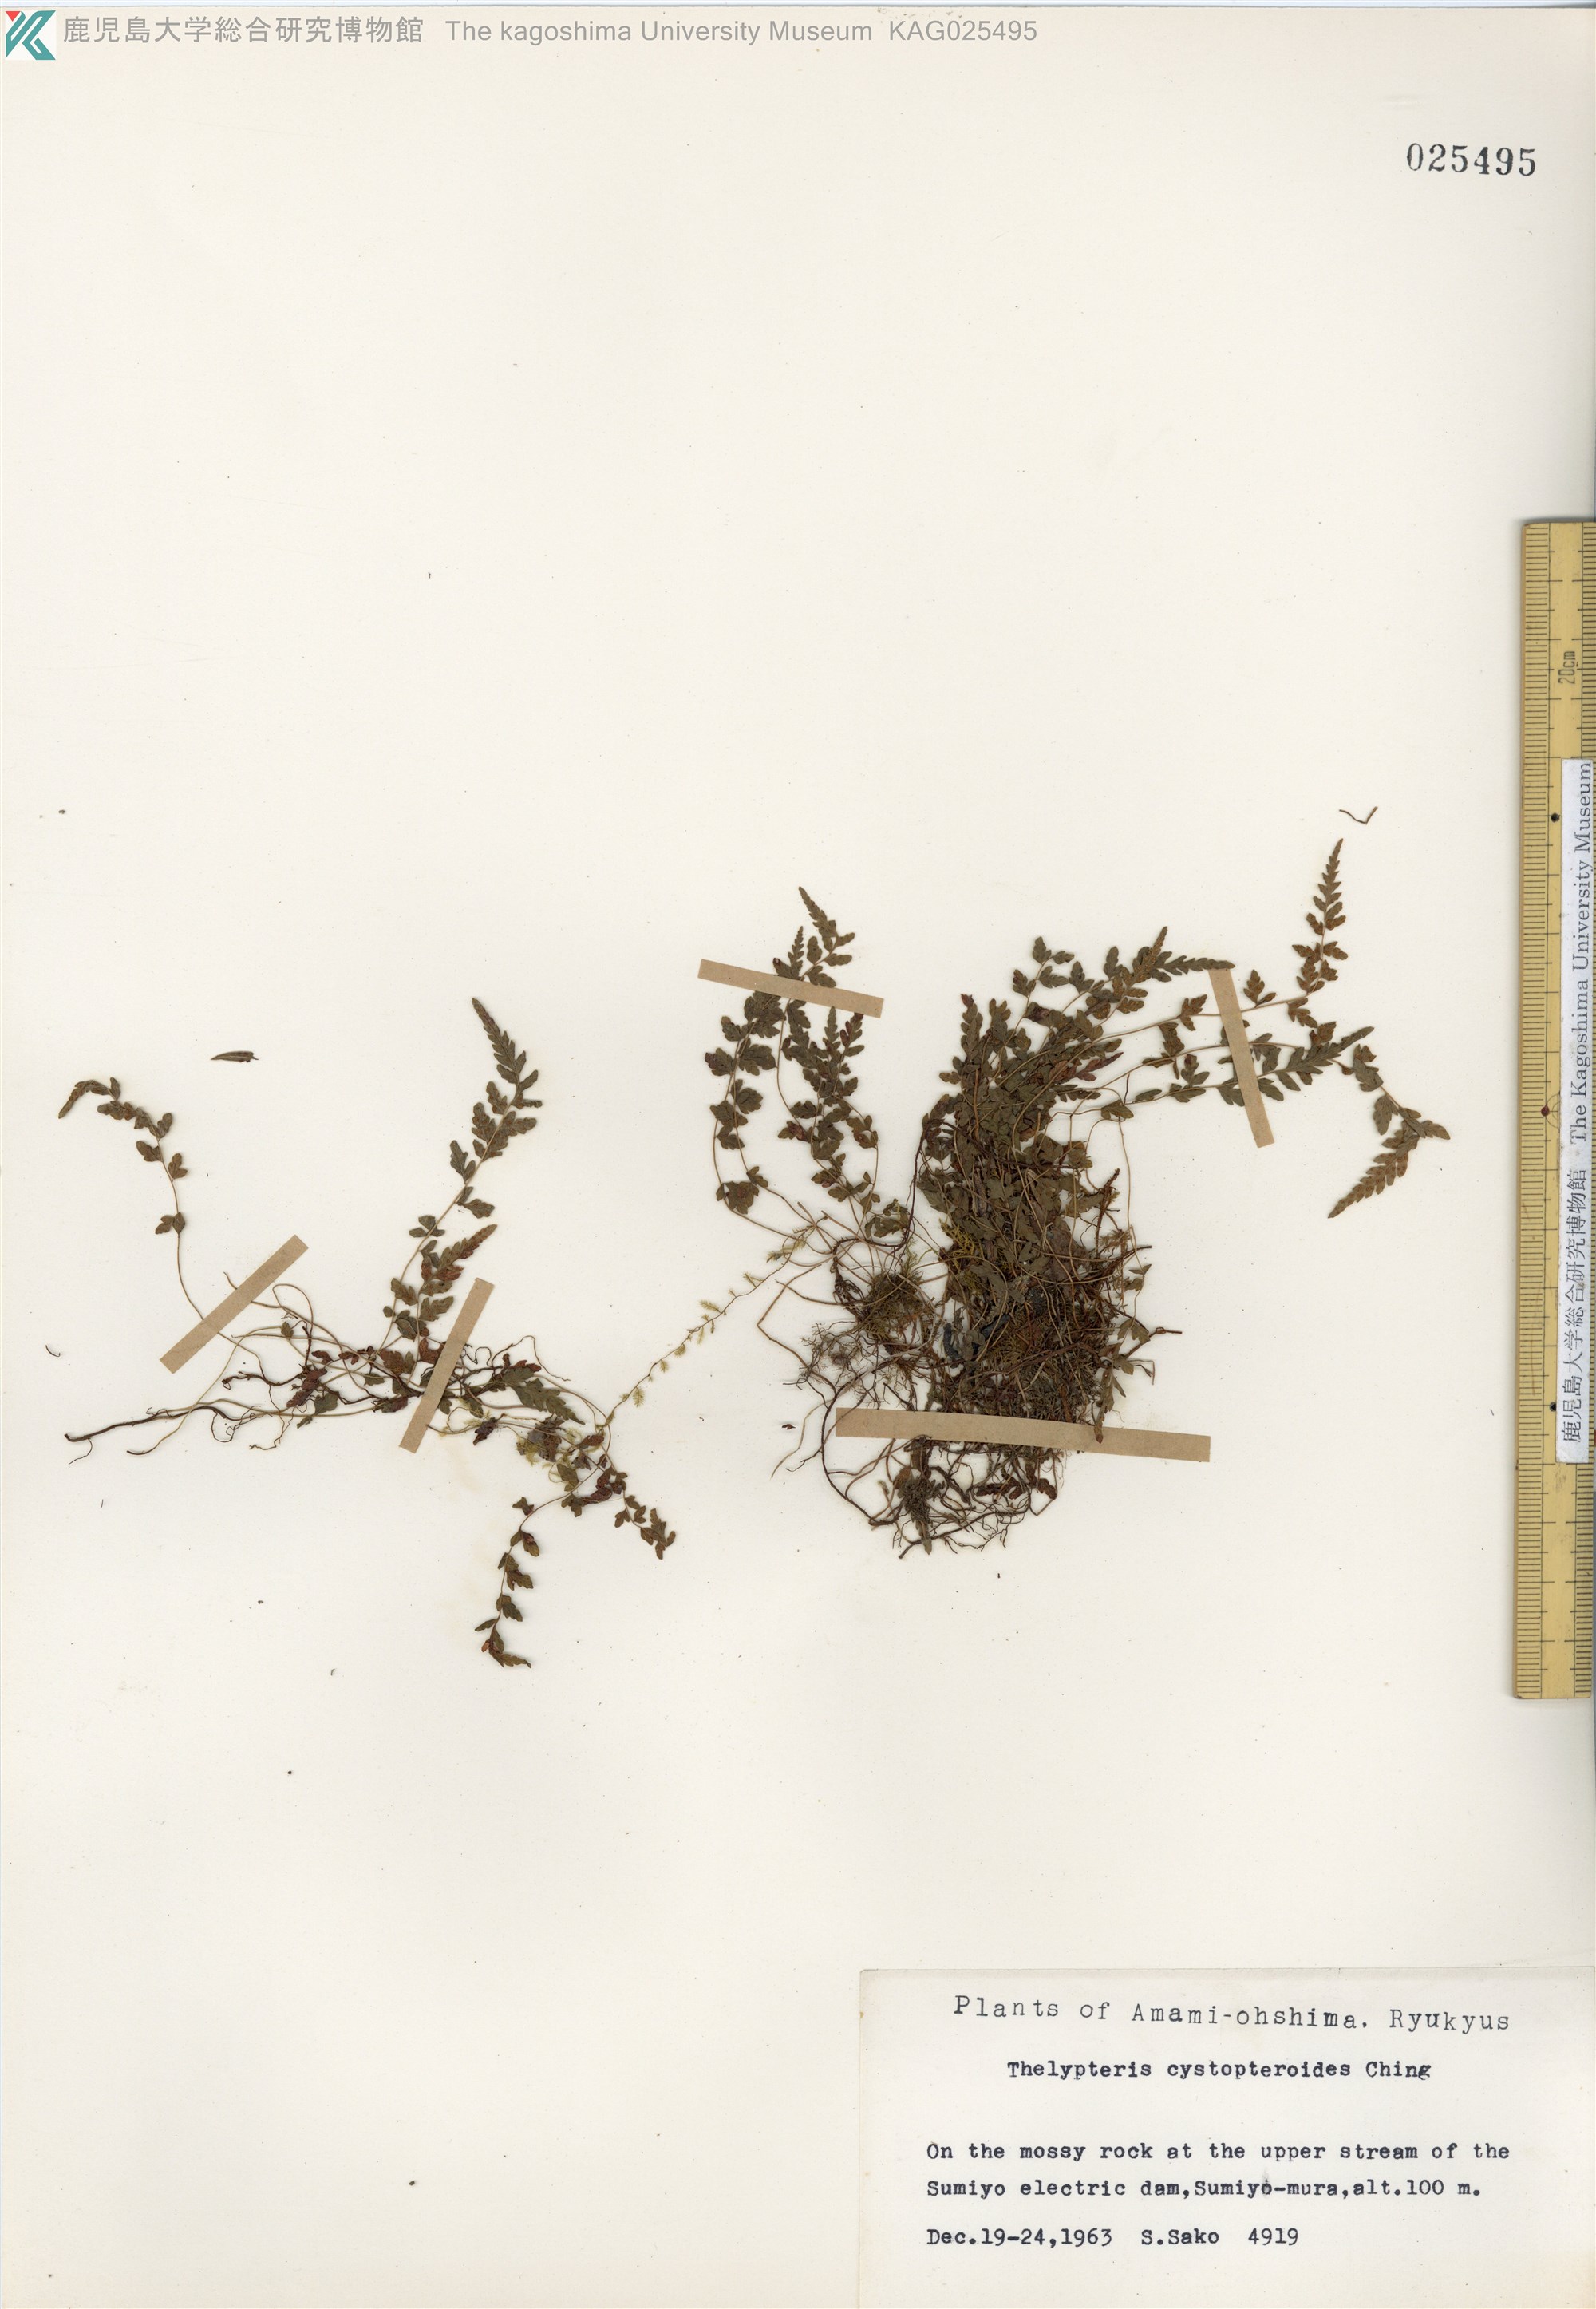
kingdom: Plantae
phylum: Tracheophyta
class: Polypodiopsida
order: Polypodiales
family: Thelypteridaceae
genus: Amauropelta
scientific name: Amauropelta cystopteroides
